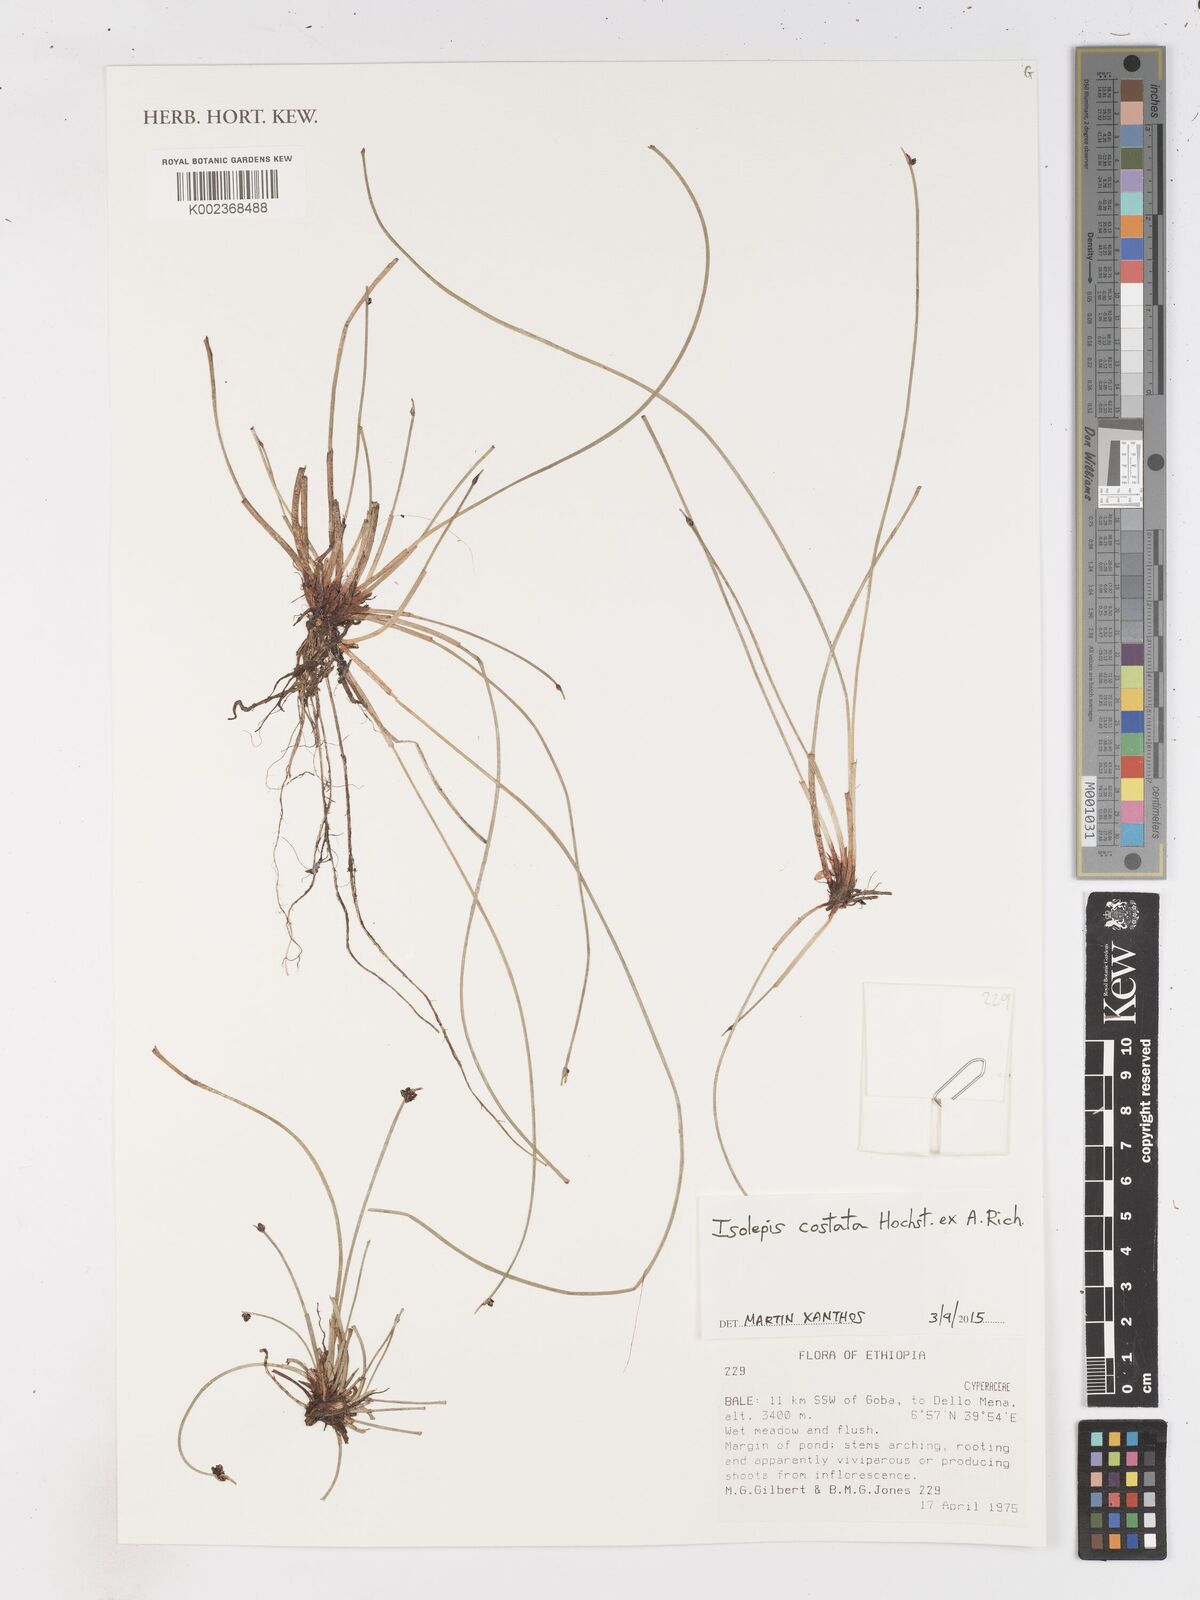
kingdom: Plantae
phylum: Tracheophyta
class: Liliopsida
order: Poales
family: Cyperaceae
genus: Isolepis
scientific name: Isolepis costata
